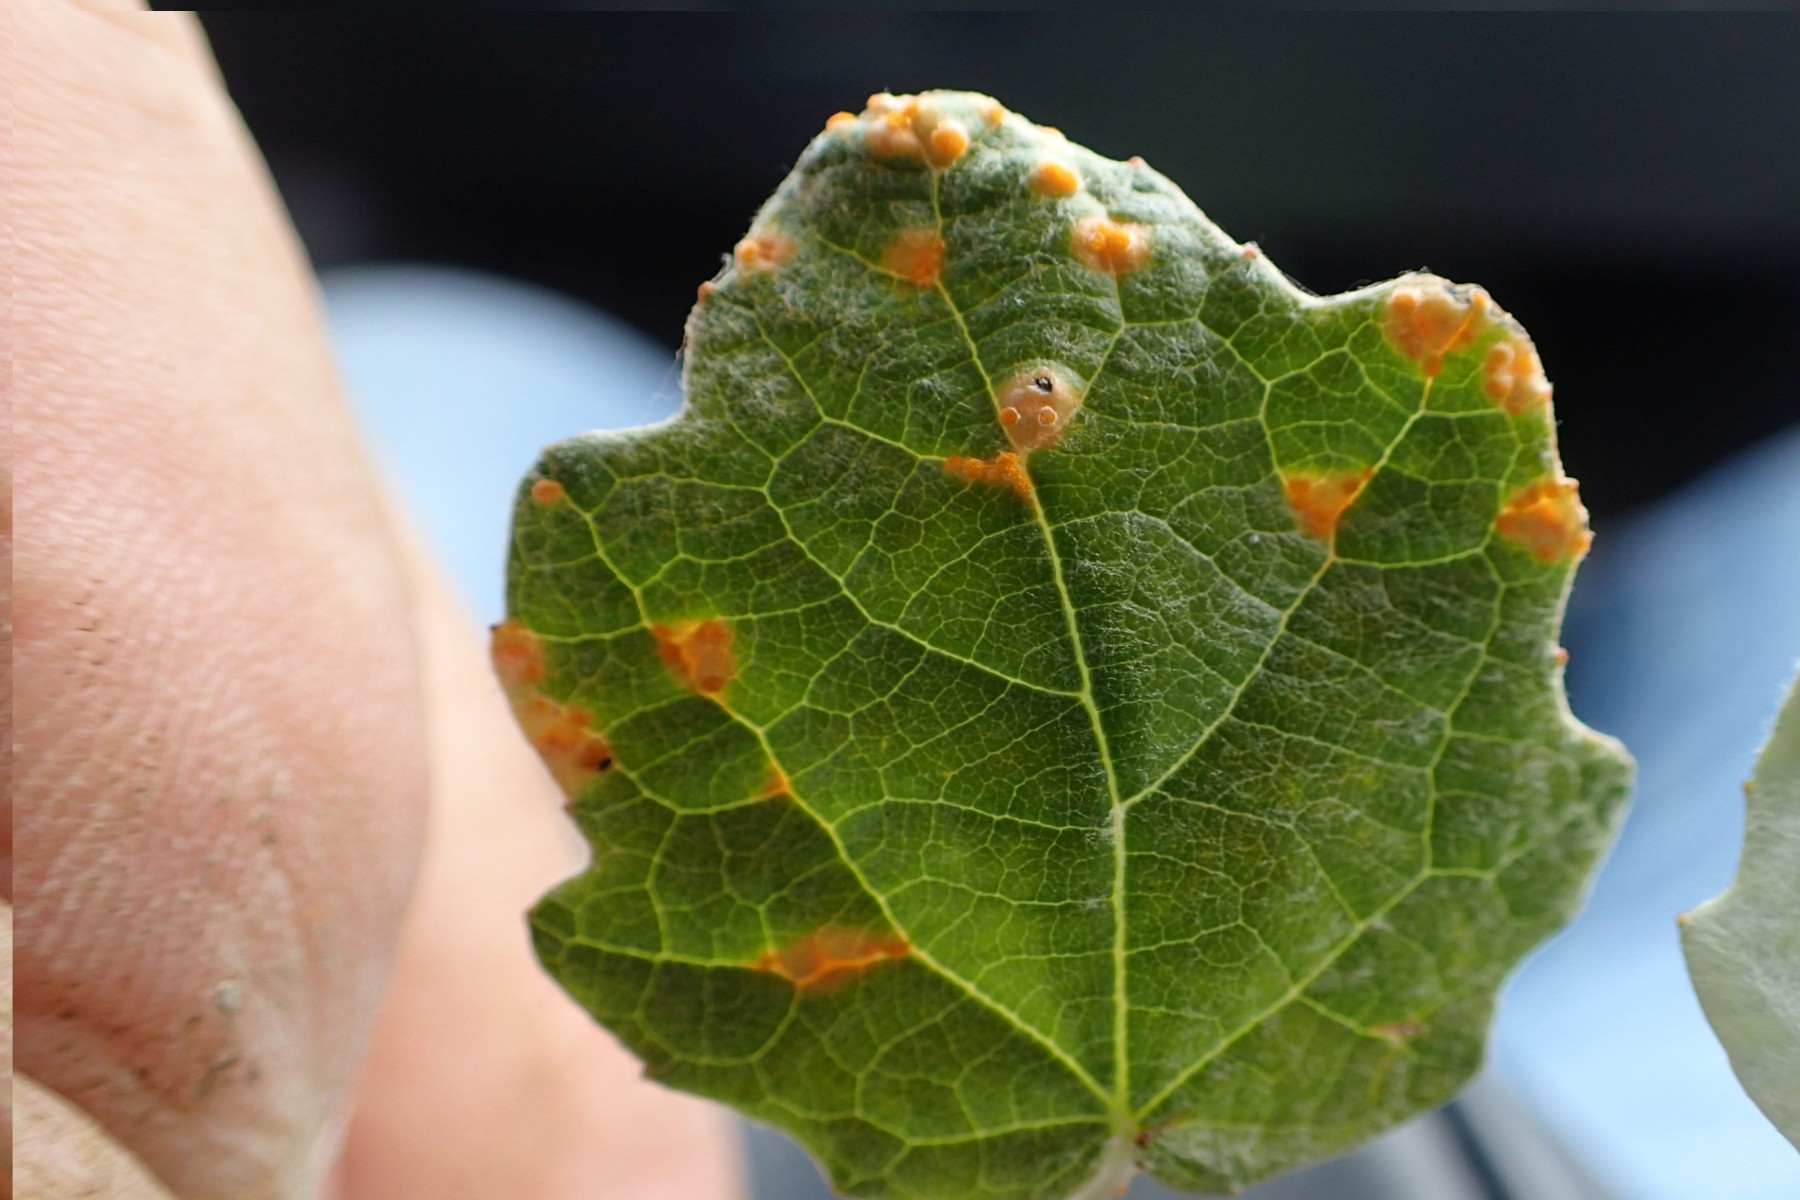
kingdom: Fungi
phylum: Basidiomycota
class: Pucciniomycetes
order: Pucciniales
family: Pucciniastraceae
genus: Melampsoridium
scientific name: Melampsoridium
